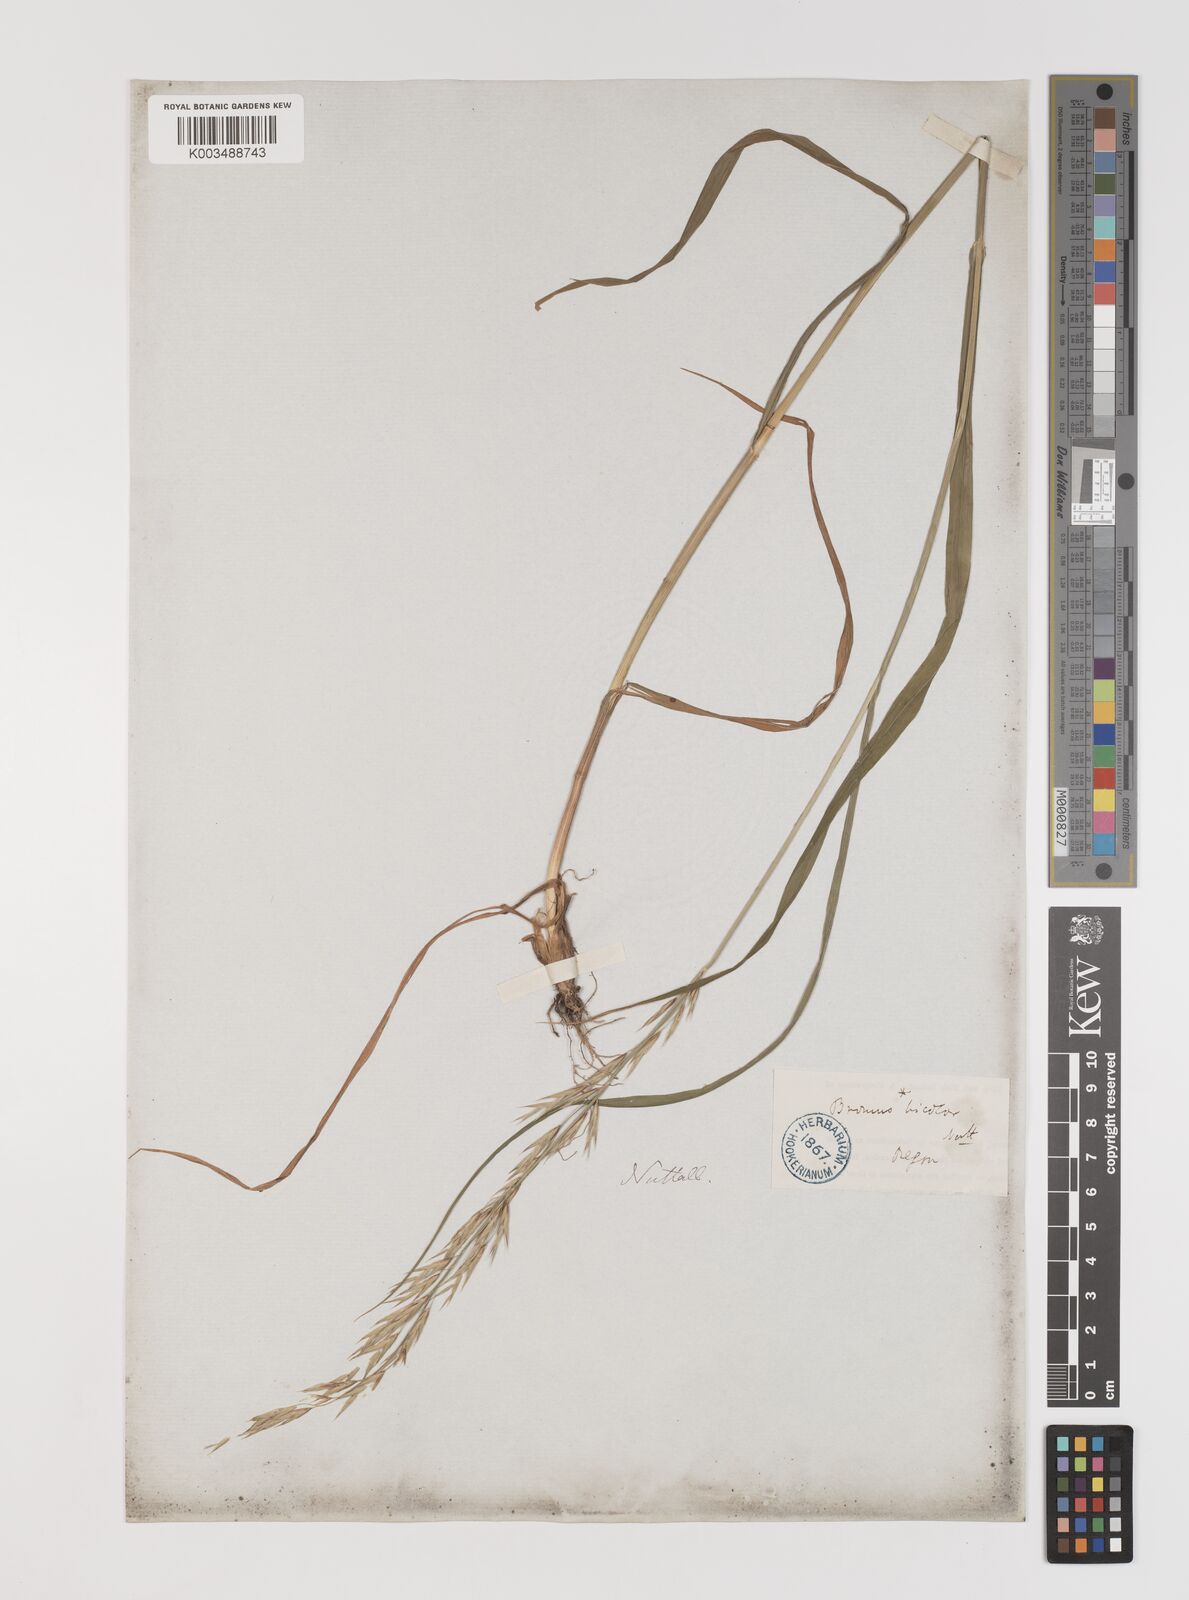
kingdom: Plantae
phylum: Tracheophyta
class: Liliopsida
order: Poales
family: Poaceae
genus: Bromus
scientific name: Bromus
